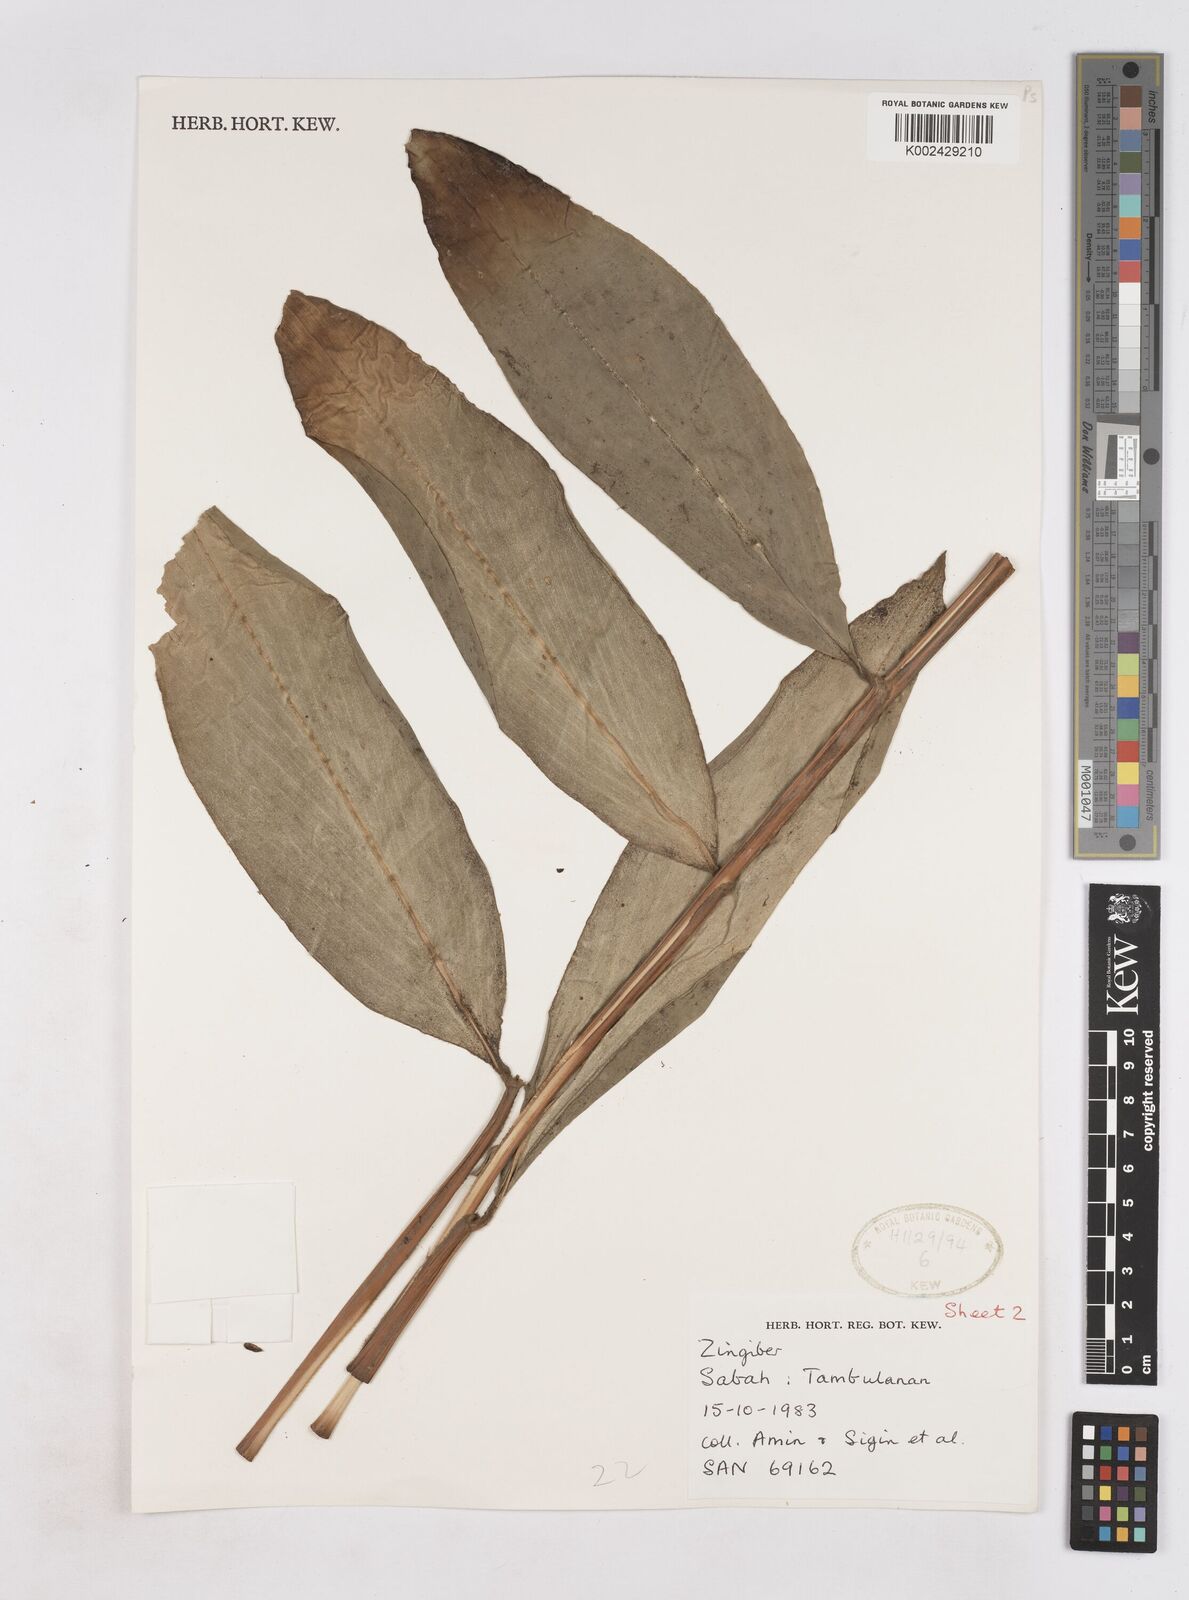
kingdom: Plantae
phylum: Tracheophyta
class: Liliopsida
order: Zingiberales
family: Zingiberaceae
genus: Zingiber
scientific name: Zingiber
